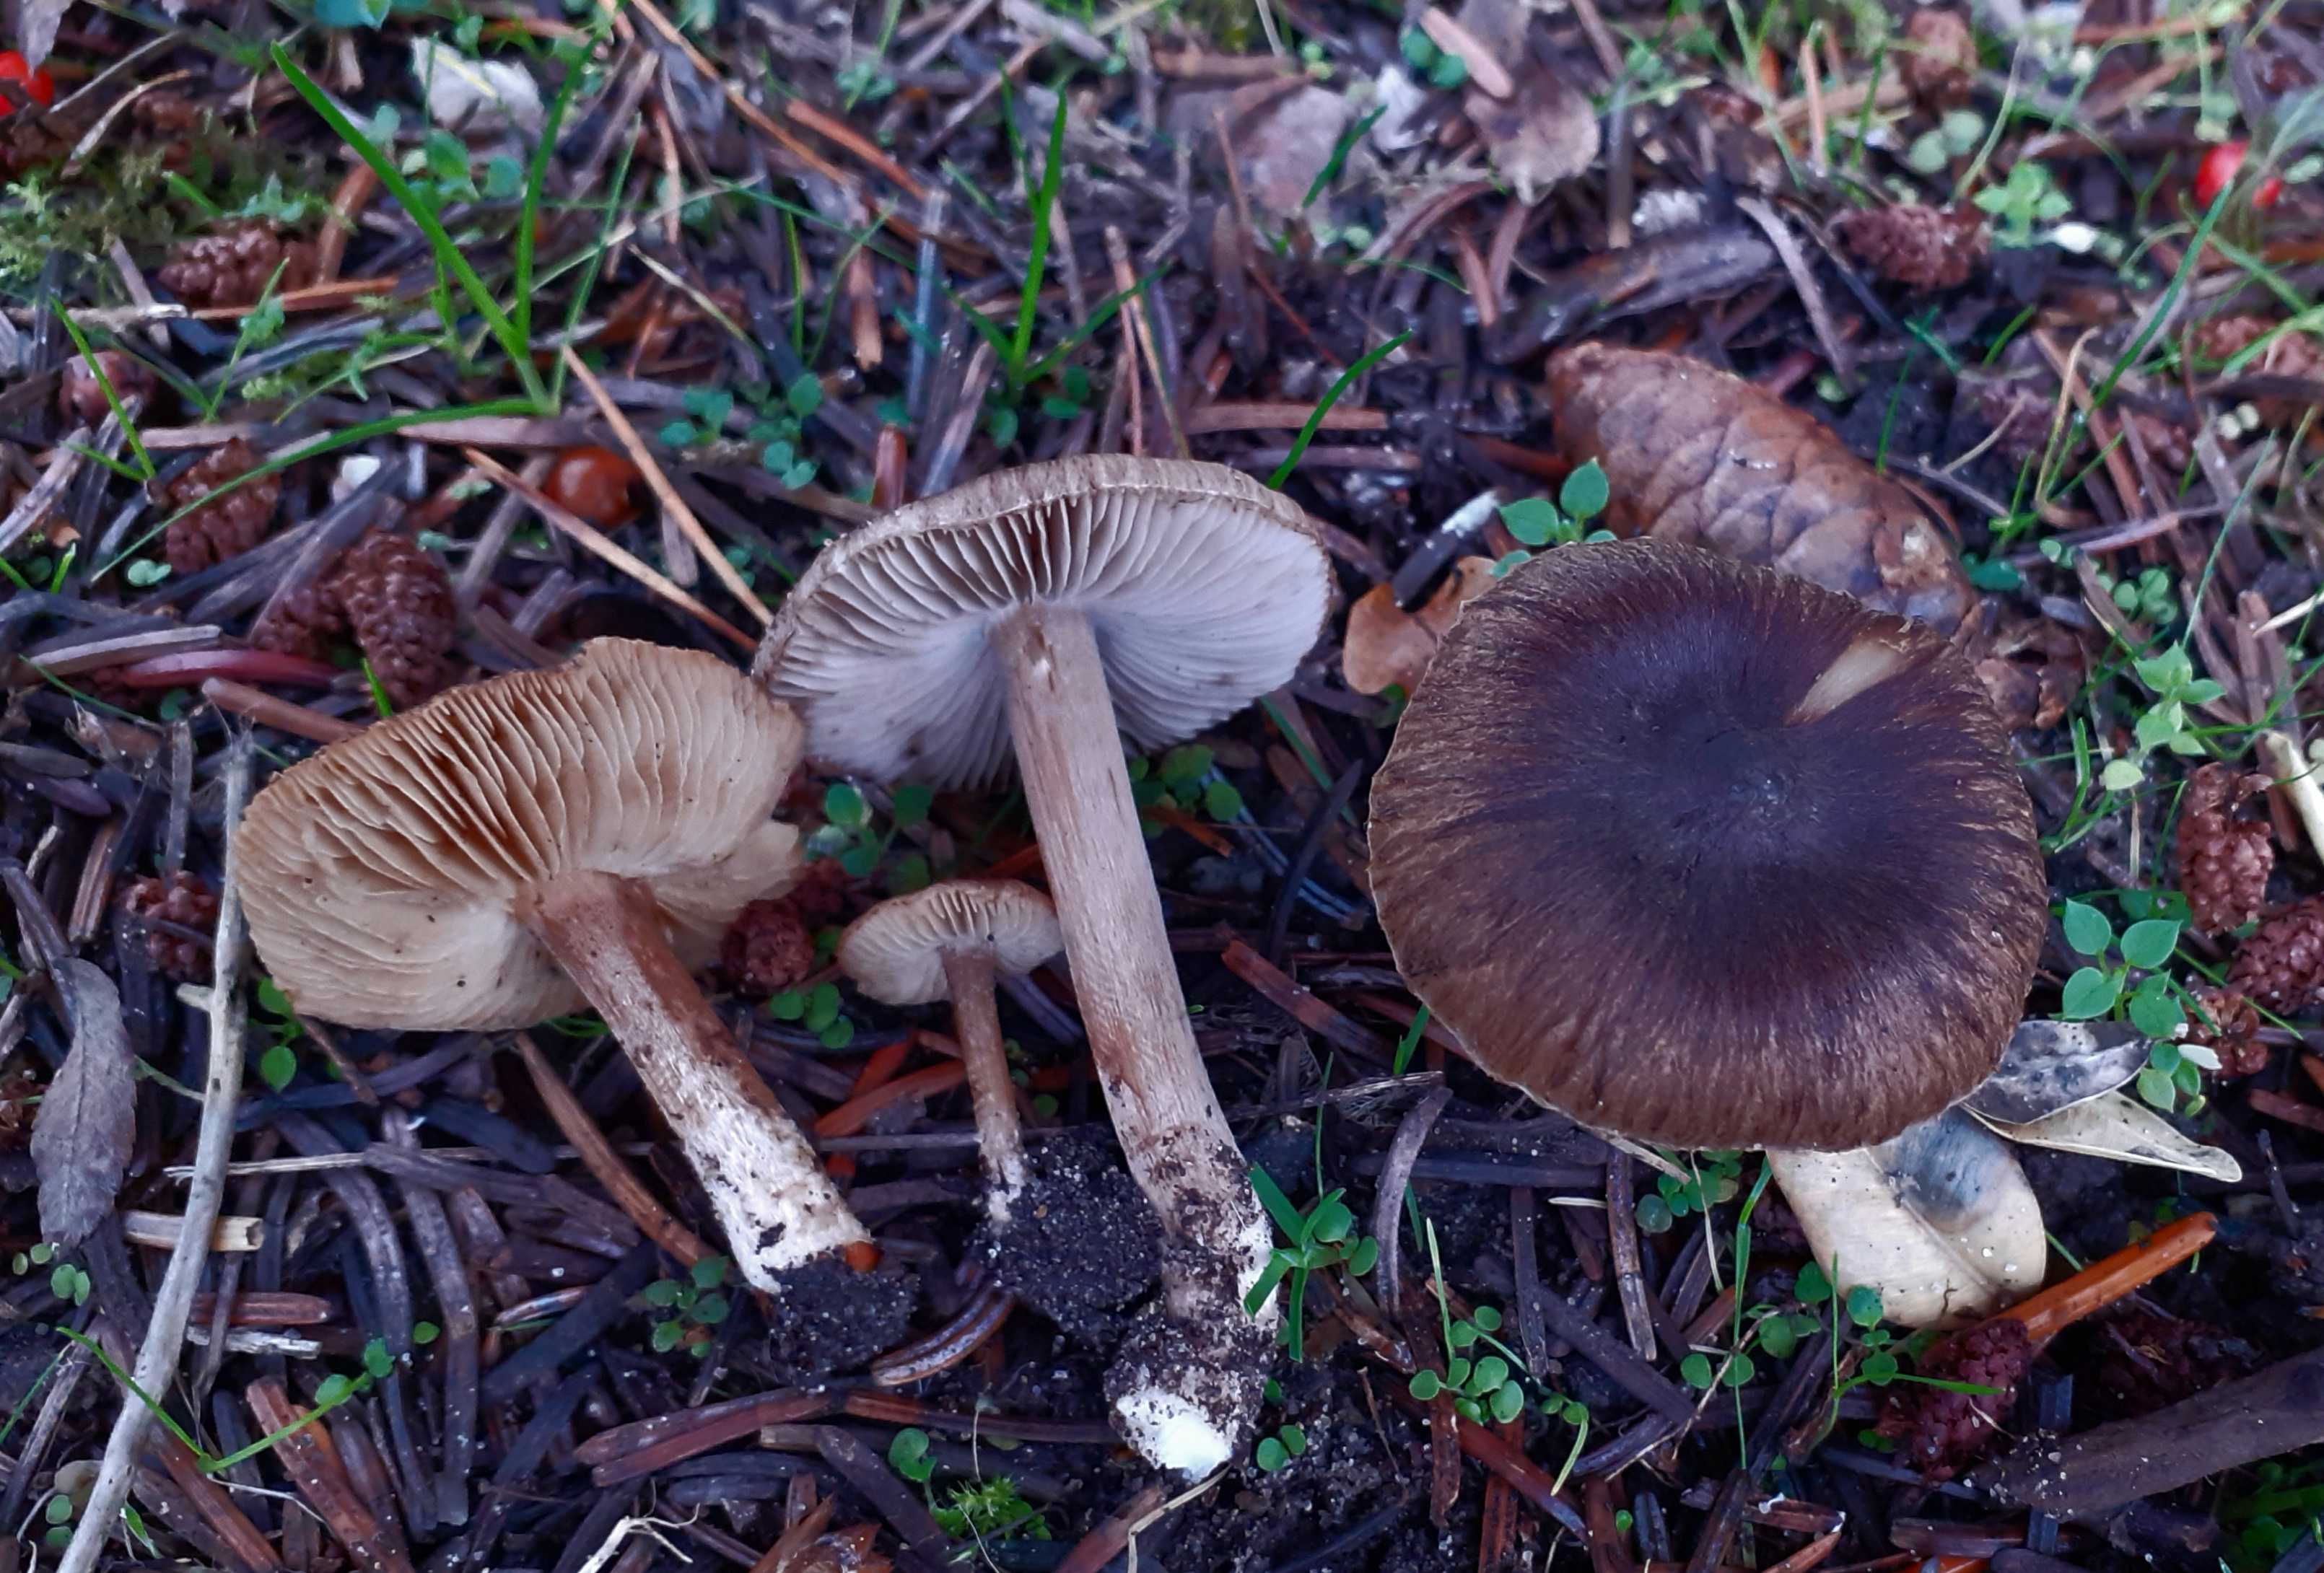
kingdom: Fungi
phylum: Basidiomycota
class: Agaricomycetes
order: Agaricales
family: Inocybaceae
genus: Inocybe
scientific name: Inocybe soluta
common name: lysbladet trævlhat
